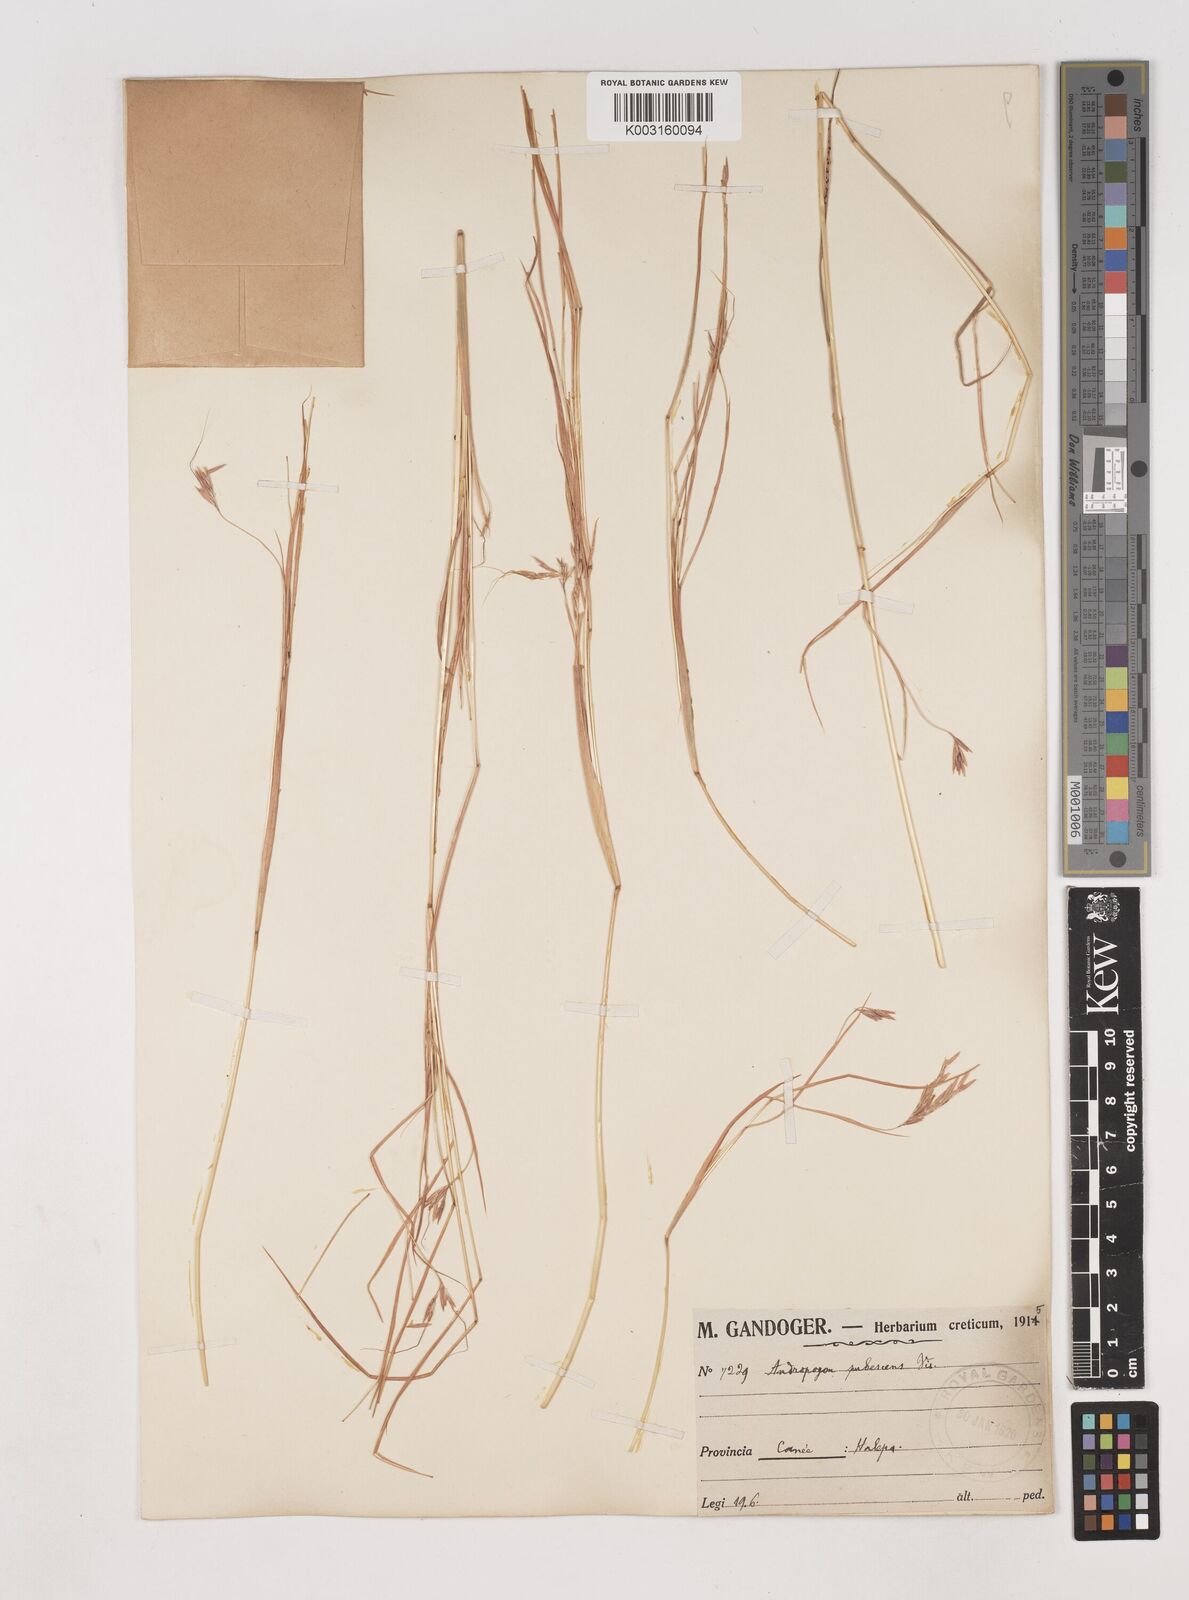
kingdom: Plantae
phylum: Tracheophyta
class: Liliopsida
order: Poales
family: Poaceae
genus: Hyparrhenia
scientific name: Hyparrhenia hirta
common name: Thatching grass
